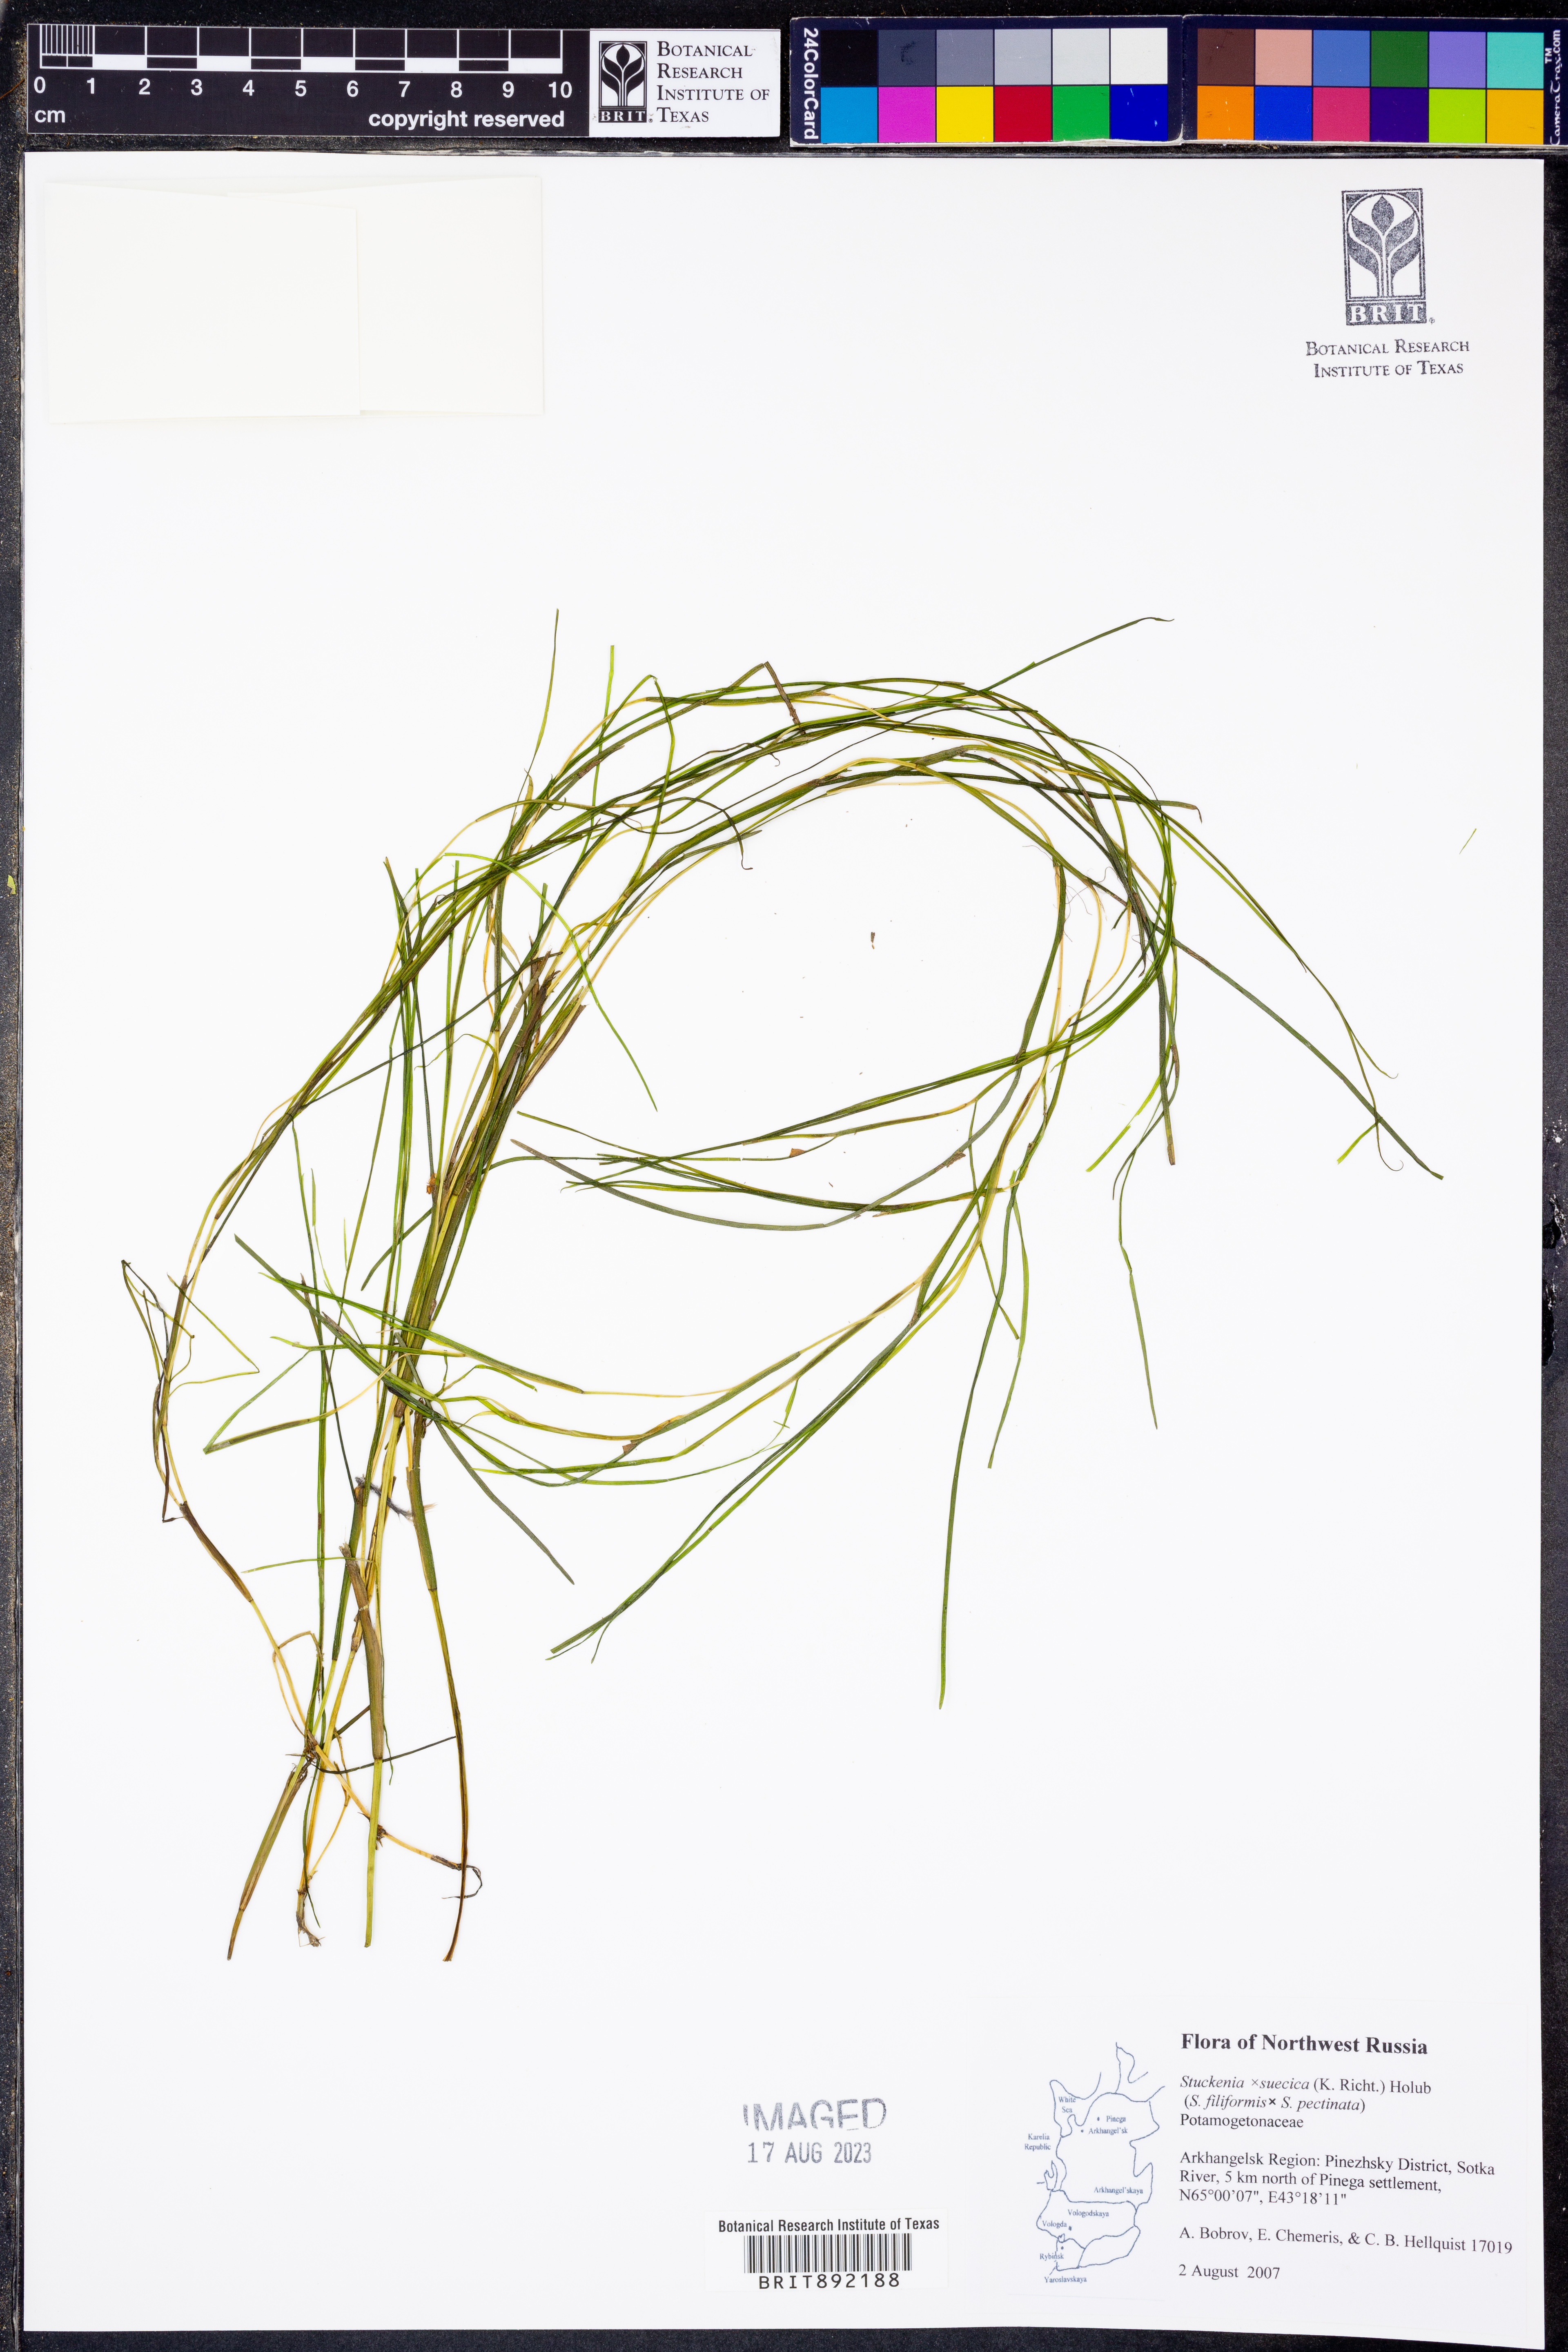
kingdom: Plantae
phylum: Tracheophyta
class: Liliopsida
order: Alismatales
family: Potamogetonaceae
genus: Stuckenia
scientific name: Stuckenia
